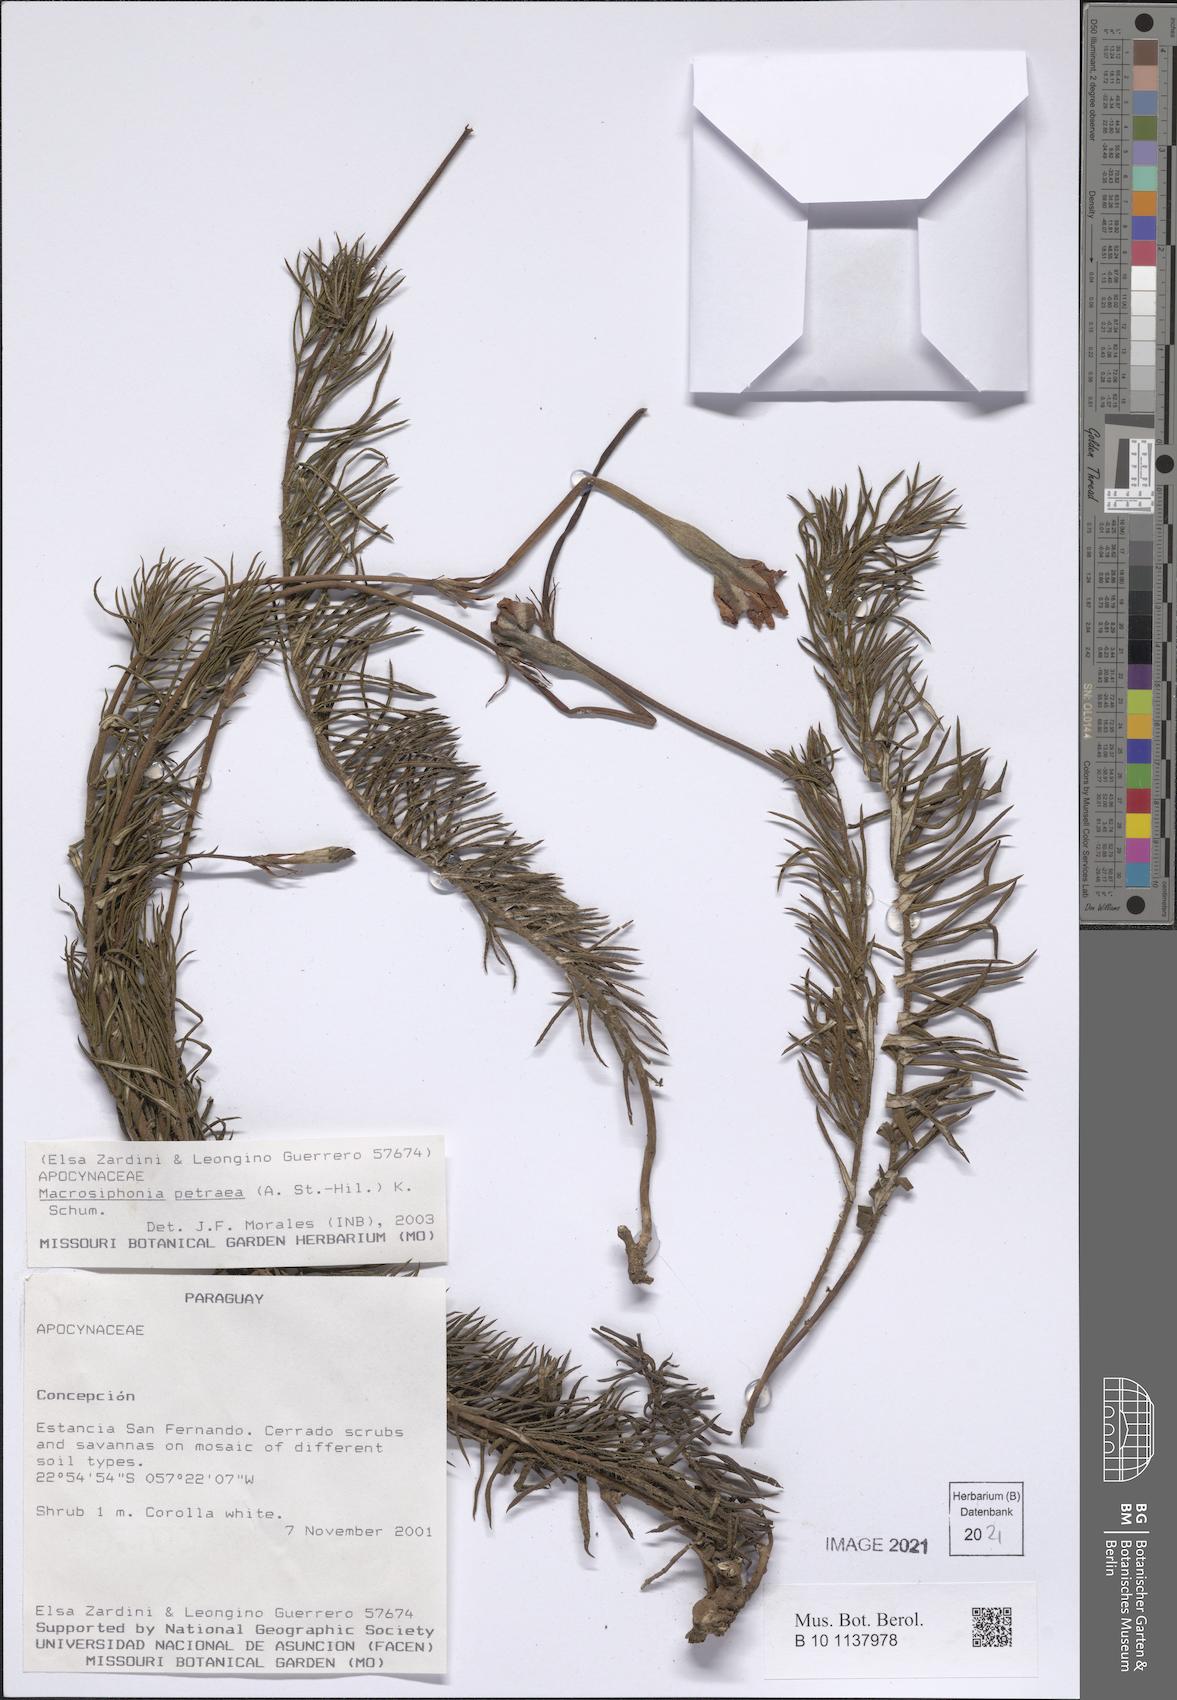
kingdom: Plantae
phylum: Tracheophyta
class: Magnoliopsida
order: Gentianales
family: Apocynaceae
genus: Mandevilla
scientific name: Mandevilla petraea
